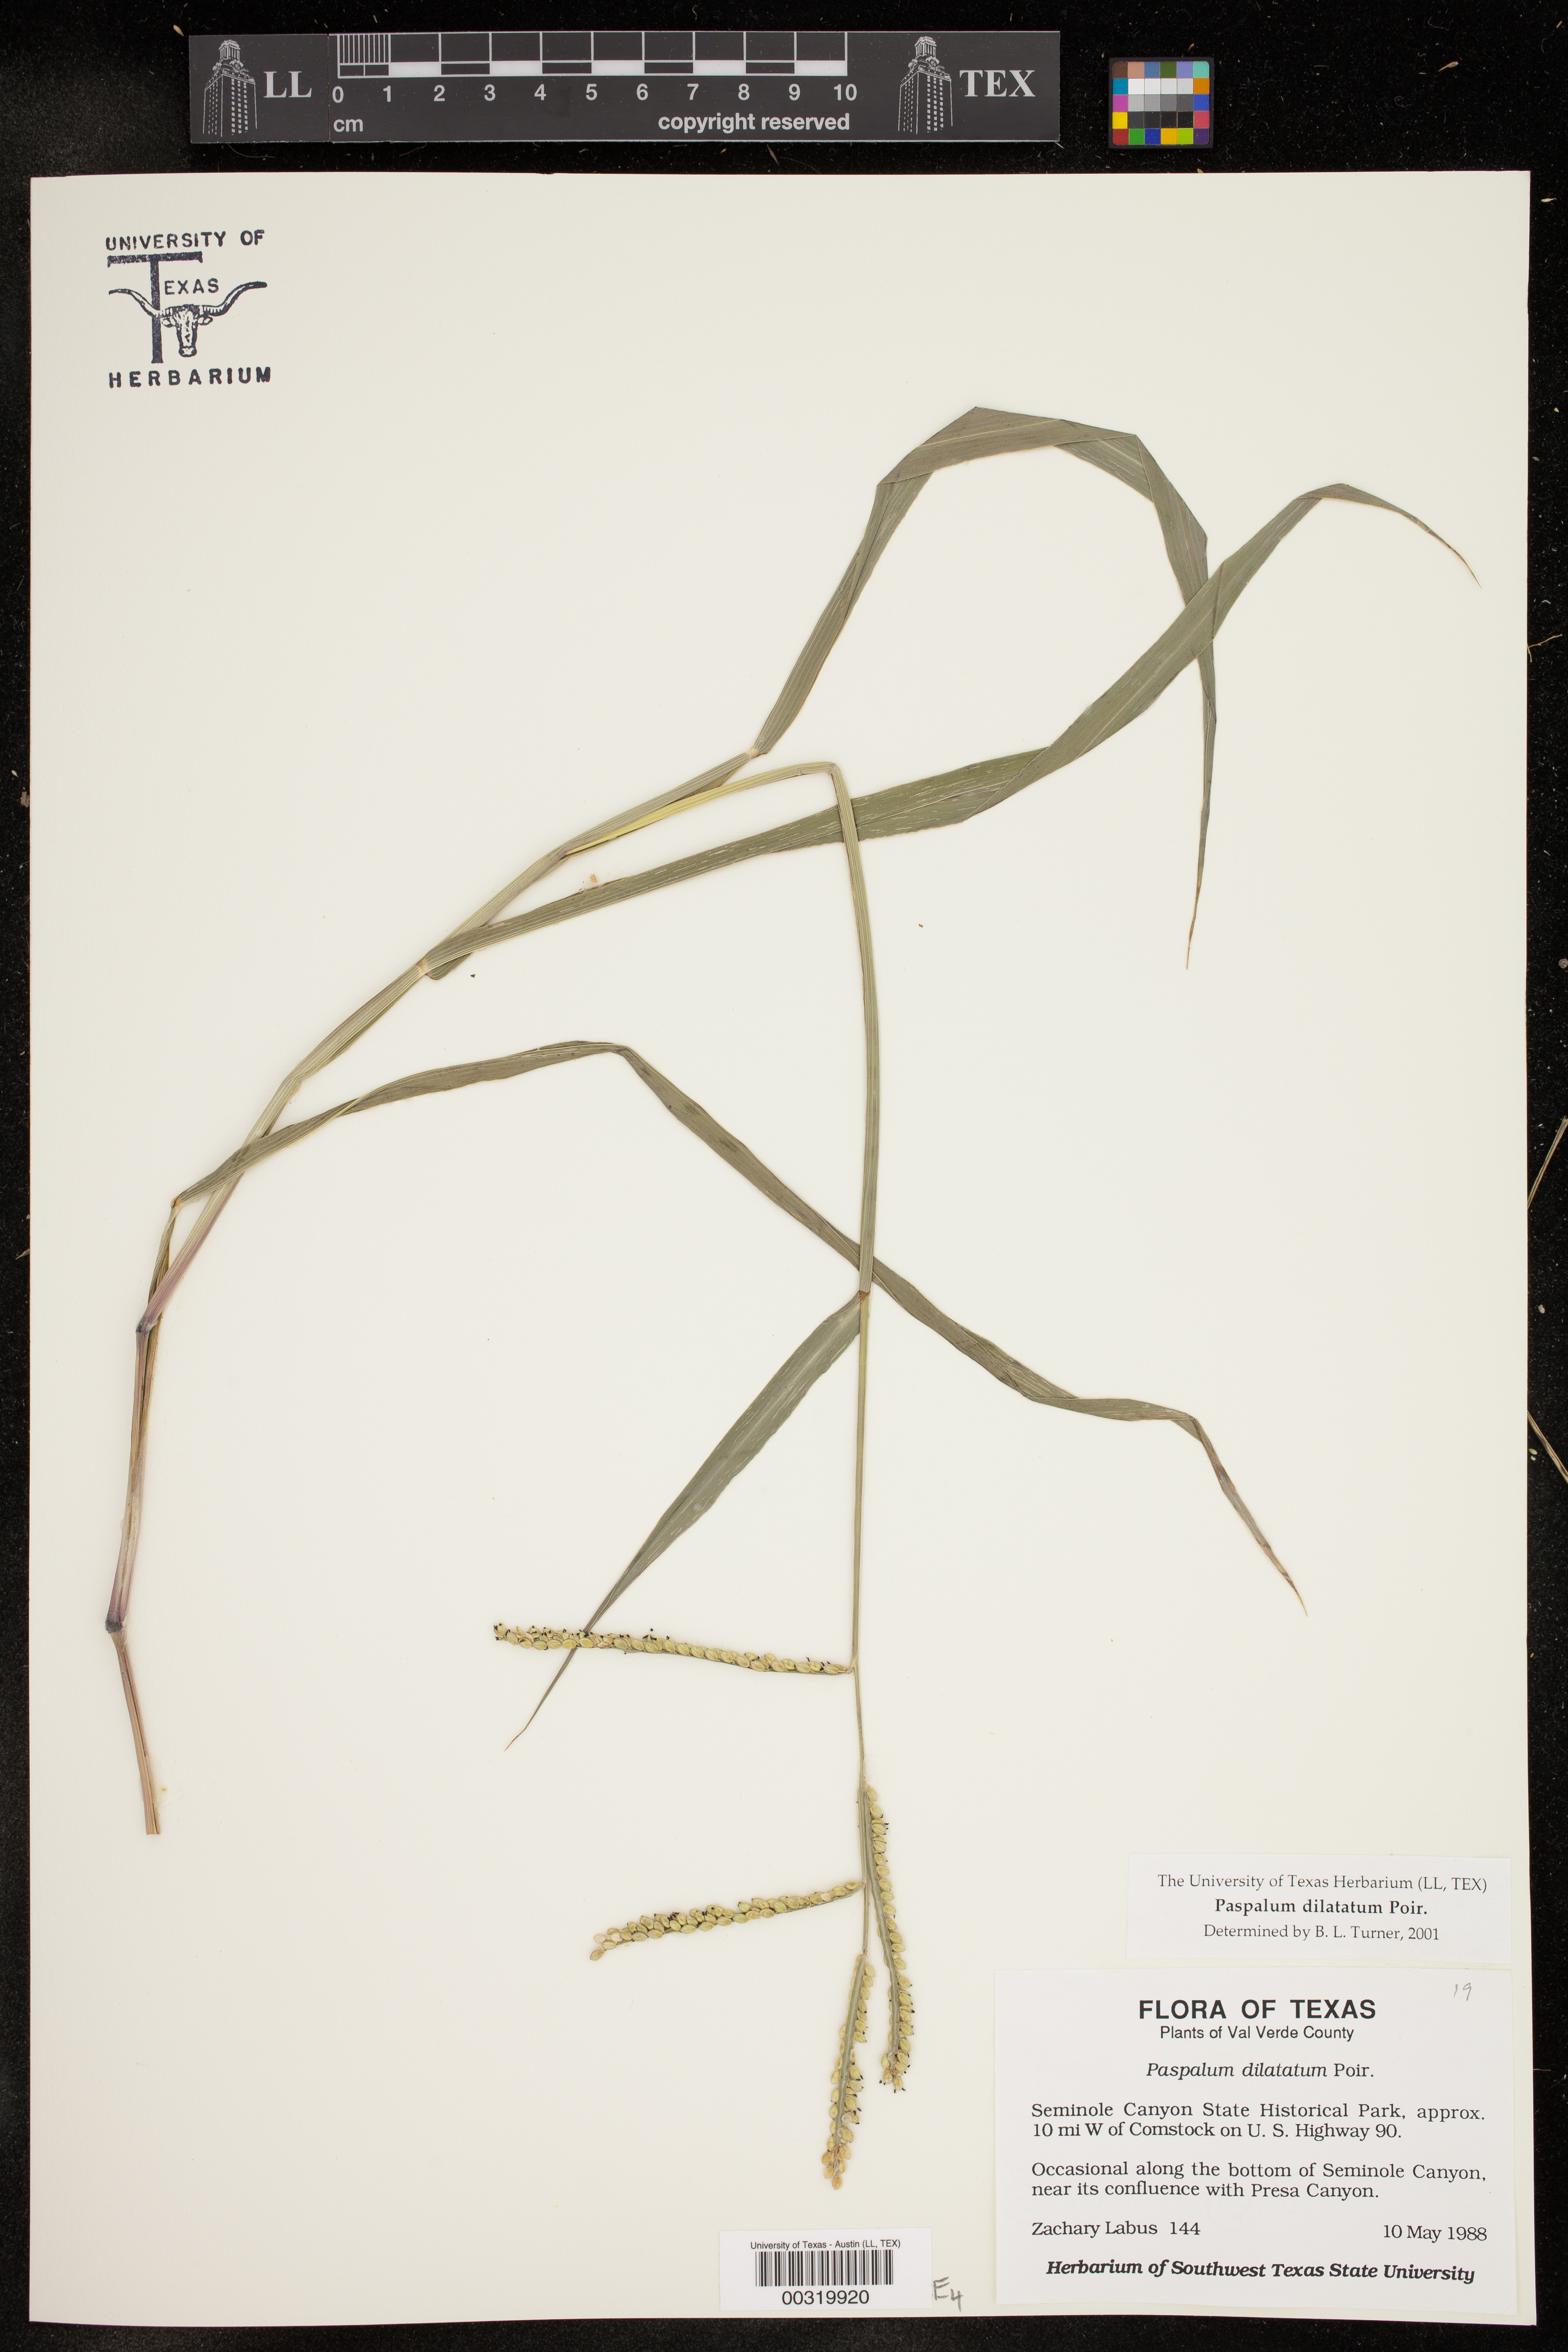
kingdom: Plantae
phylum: Tracheophyta
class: Liliopsida
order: Poales
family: Poaceae
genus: Paspalum
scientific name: Paspalum dilatatum
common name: Dallisgrass
